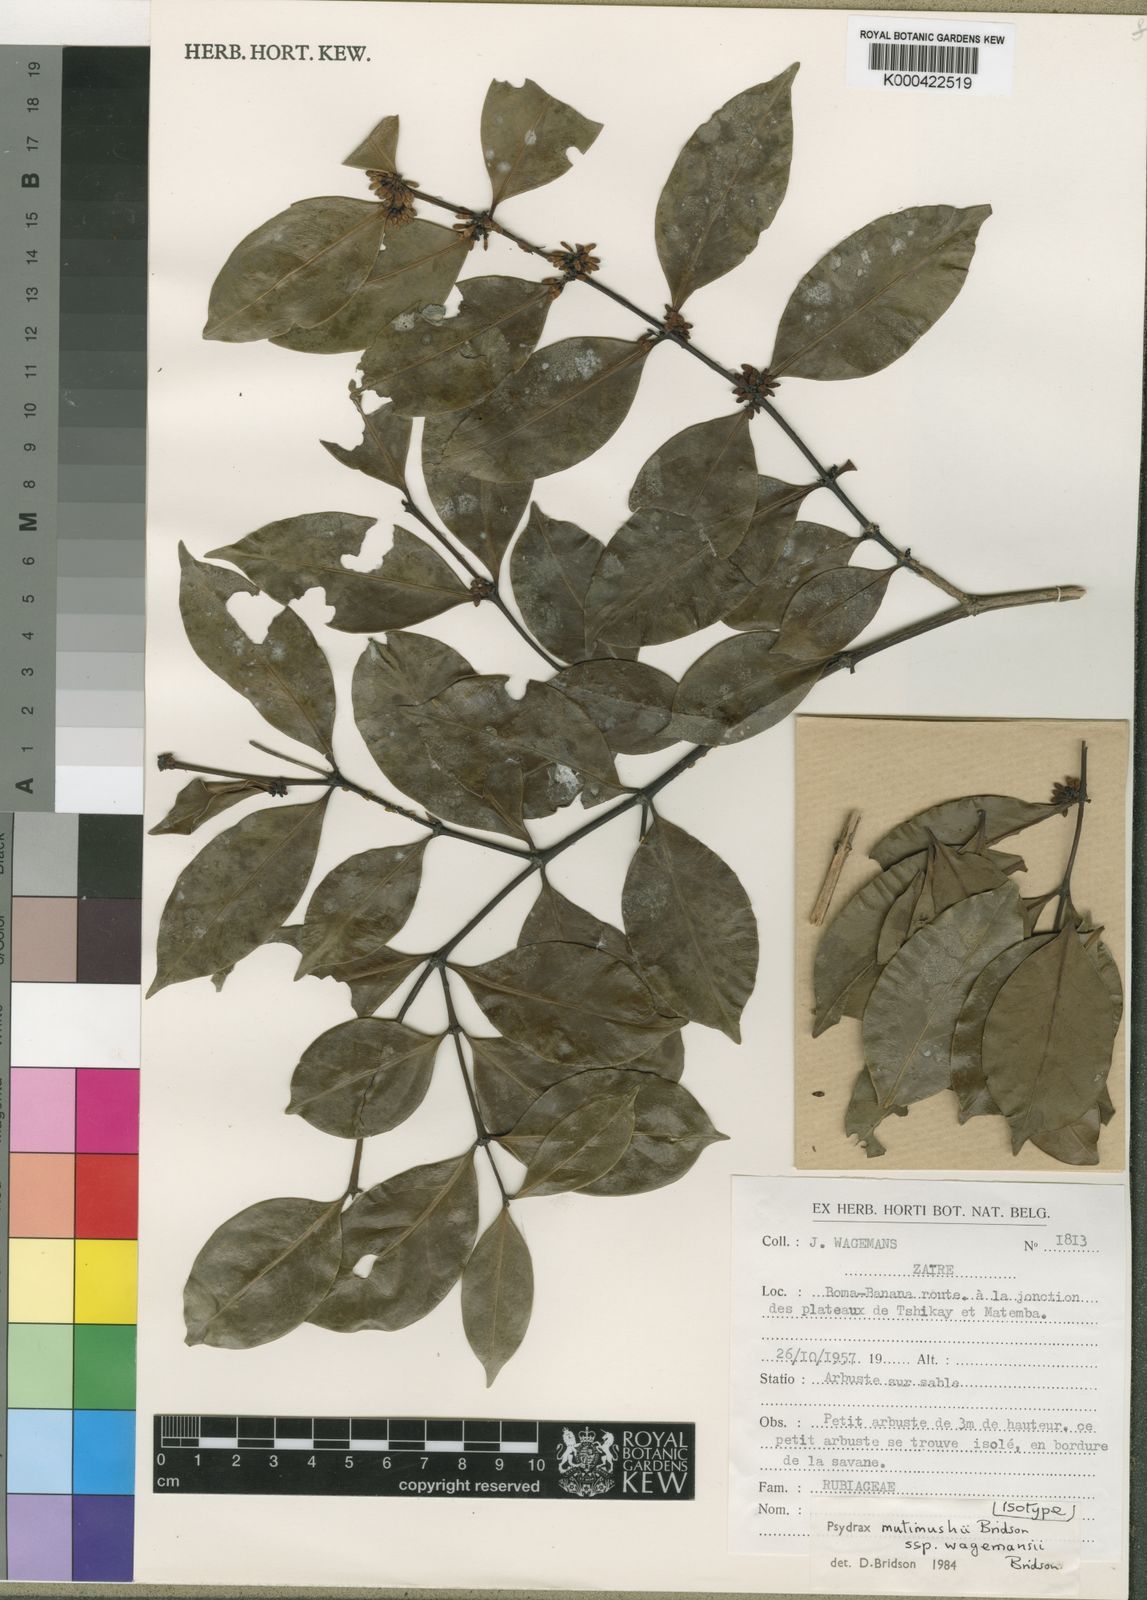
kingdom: Plantae
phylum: Tracheophyta
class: Magnoliopsida
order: Gentianales
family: Rubiaceae
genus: Psydrax
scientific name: Psydrax mutimushii
